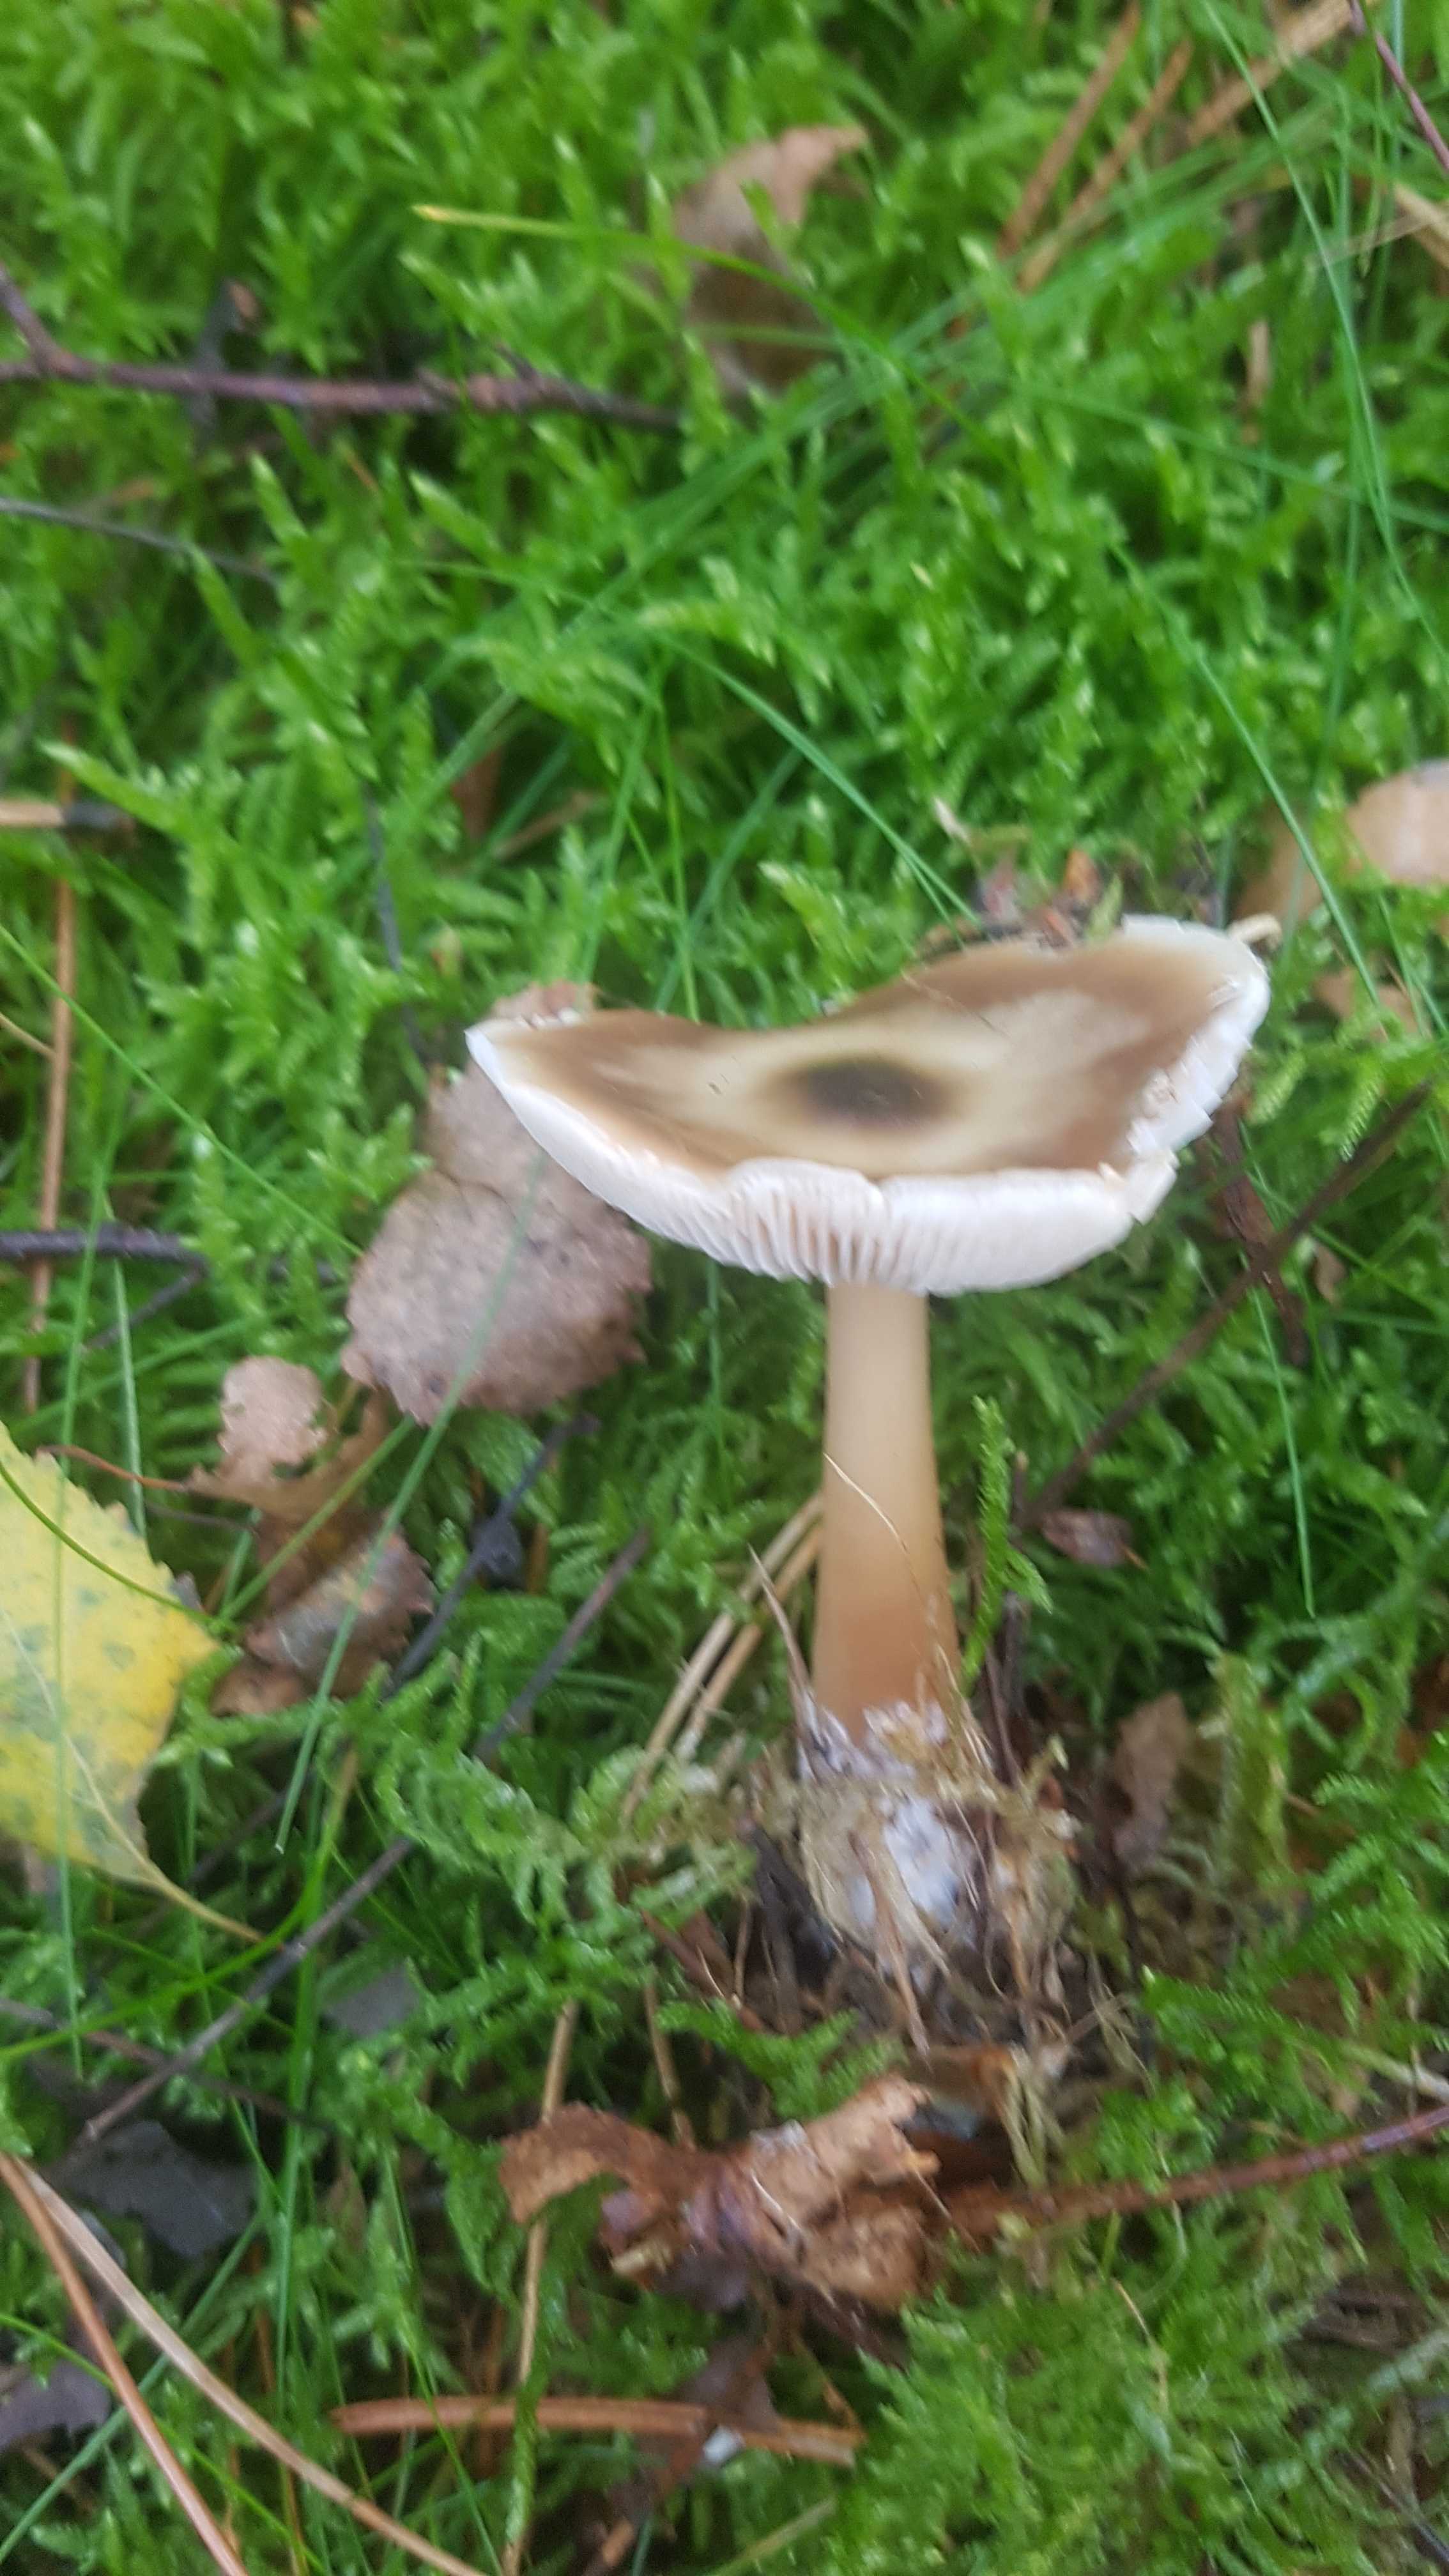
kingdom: Fungi
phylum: Basidiomycota
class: Agaricomycetes
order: Agaricales
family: Omphalotaceae
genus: Rhodocollybia
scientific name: Rhodocollybia asema
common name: horngrå fladhat
